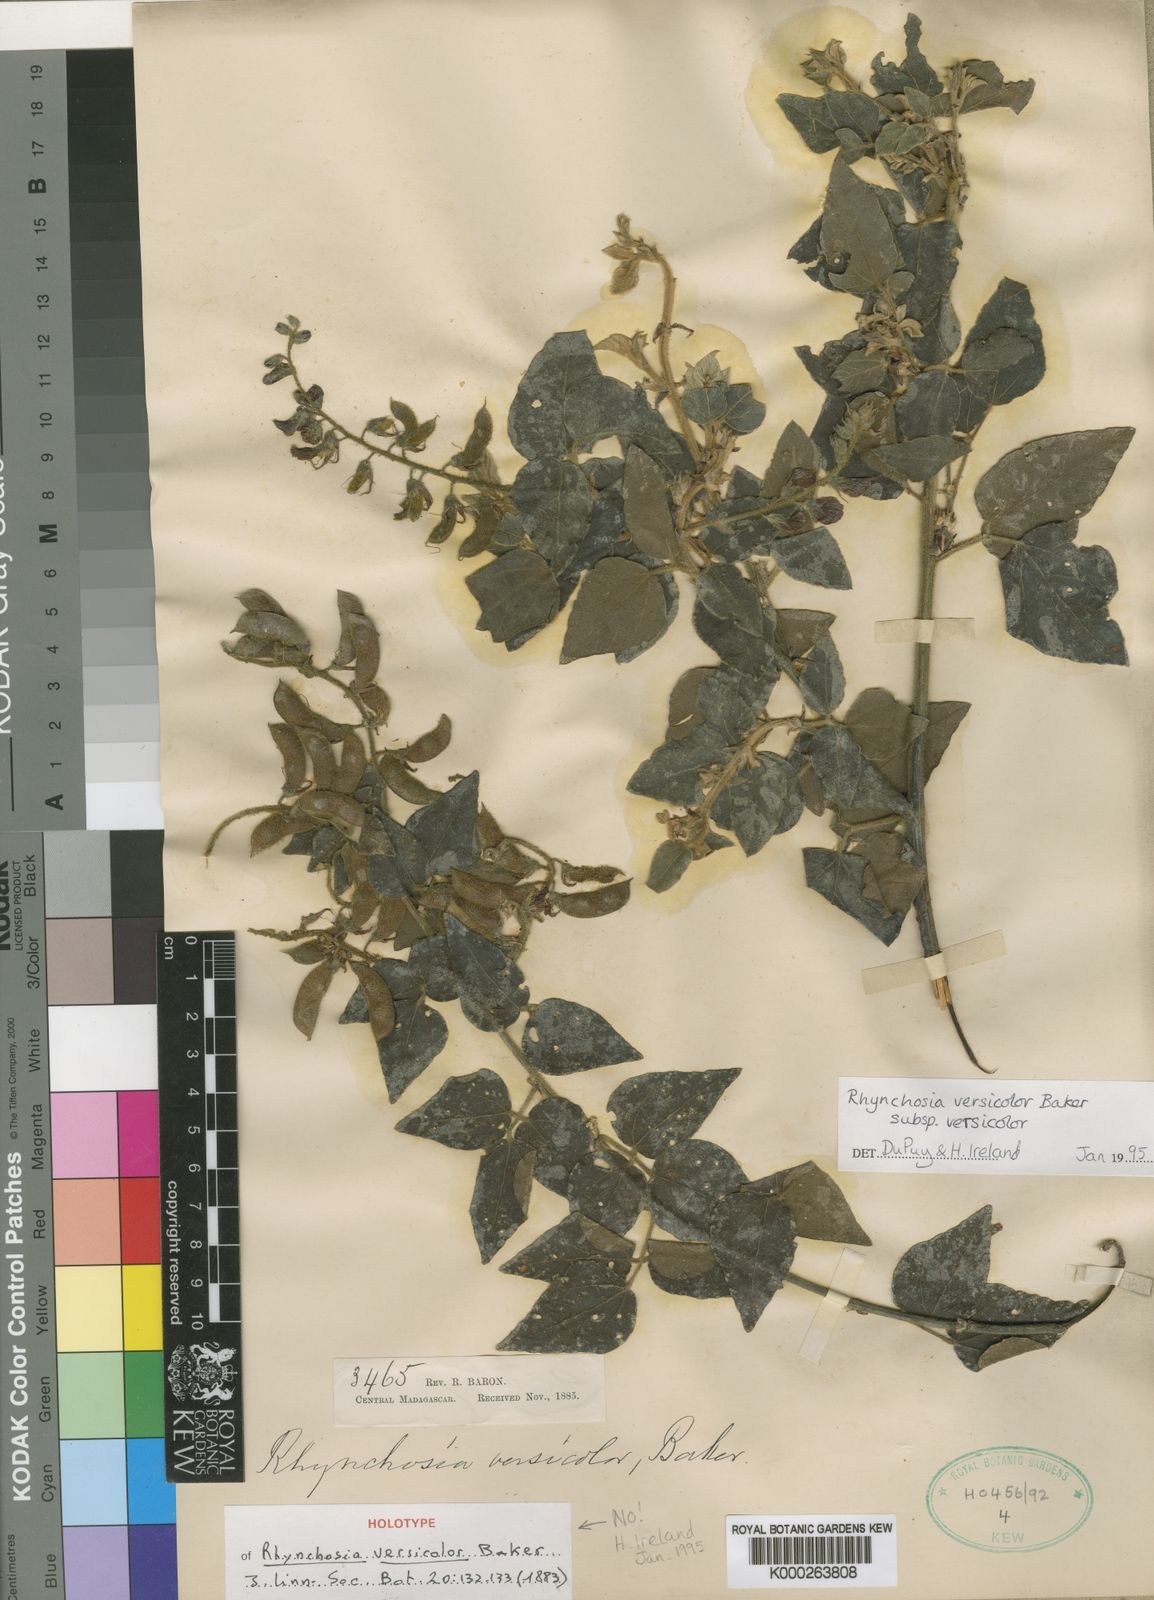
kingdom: Plantae
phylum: Tracheophyta
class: Magnoliopsida
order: Fabales
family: Fabaceae
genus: Rhynchosia
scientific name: Rhynchosia versicolor
